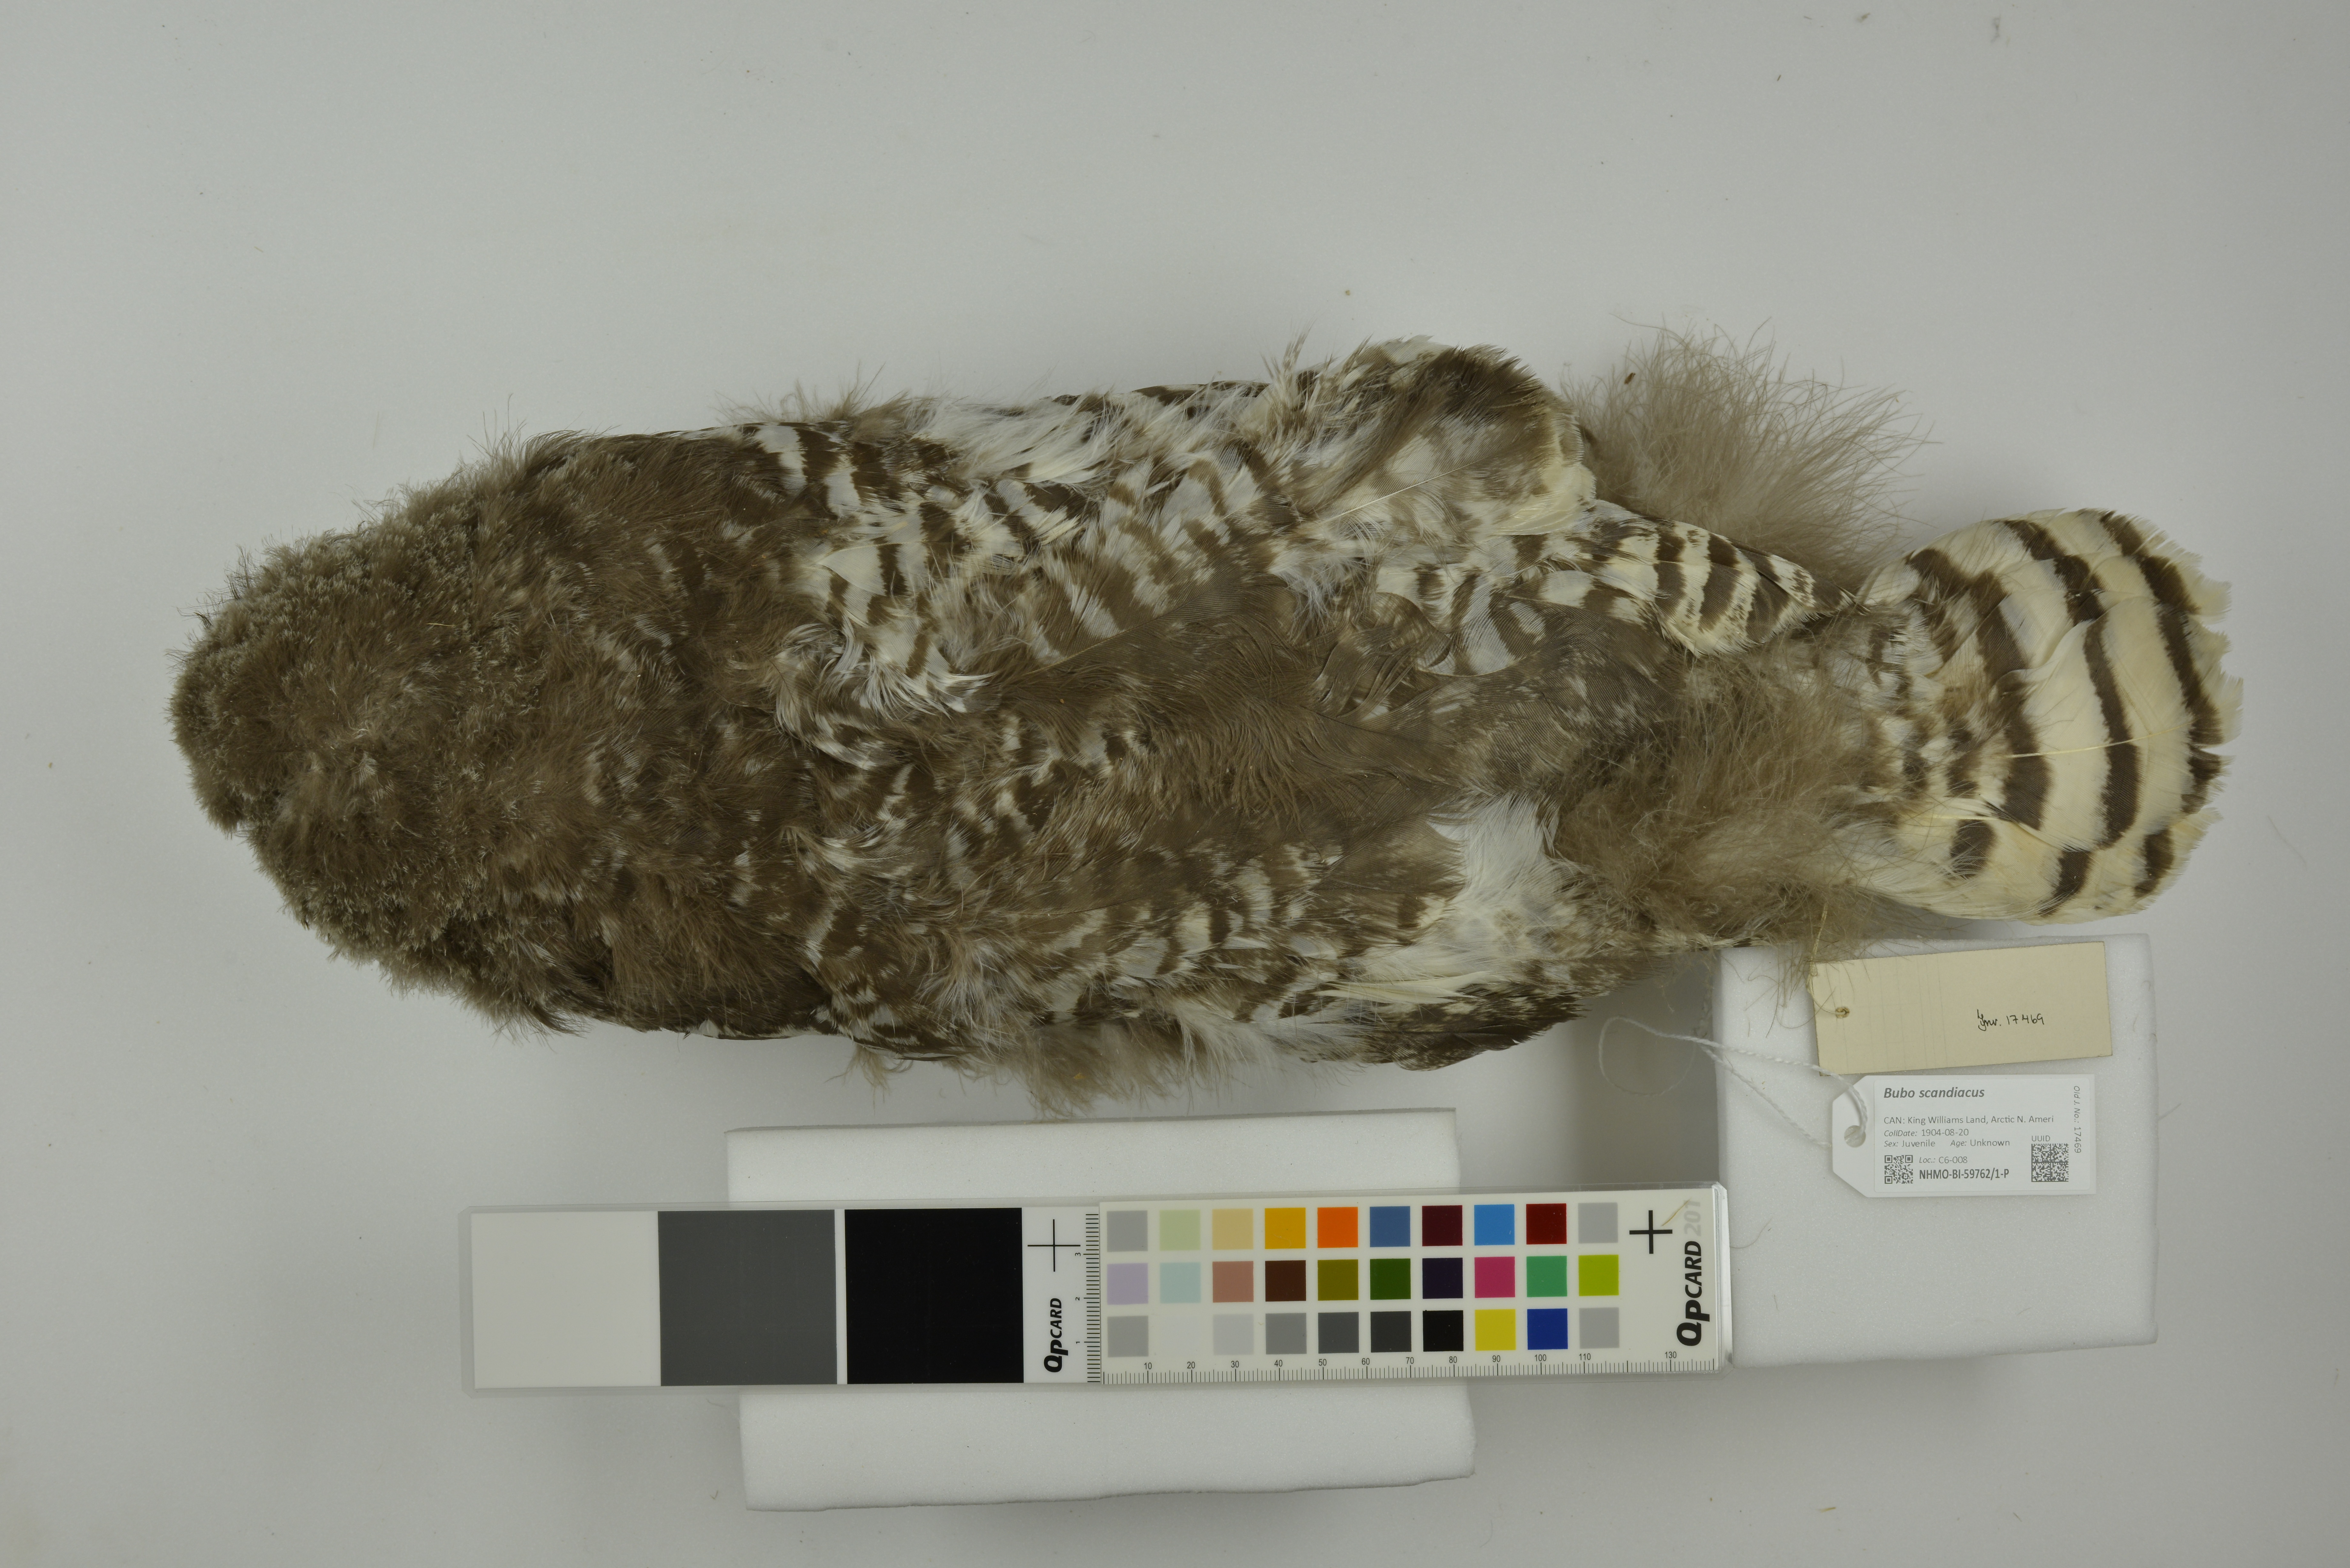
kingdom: Animalia
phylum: Chordata
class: Aves
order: Strigiformes
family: Strigidae
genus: Bubo
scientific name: Bubo scandiacus
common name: Snowy owl
